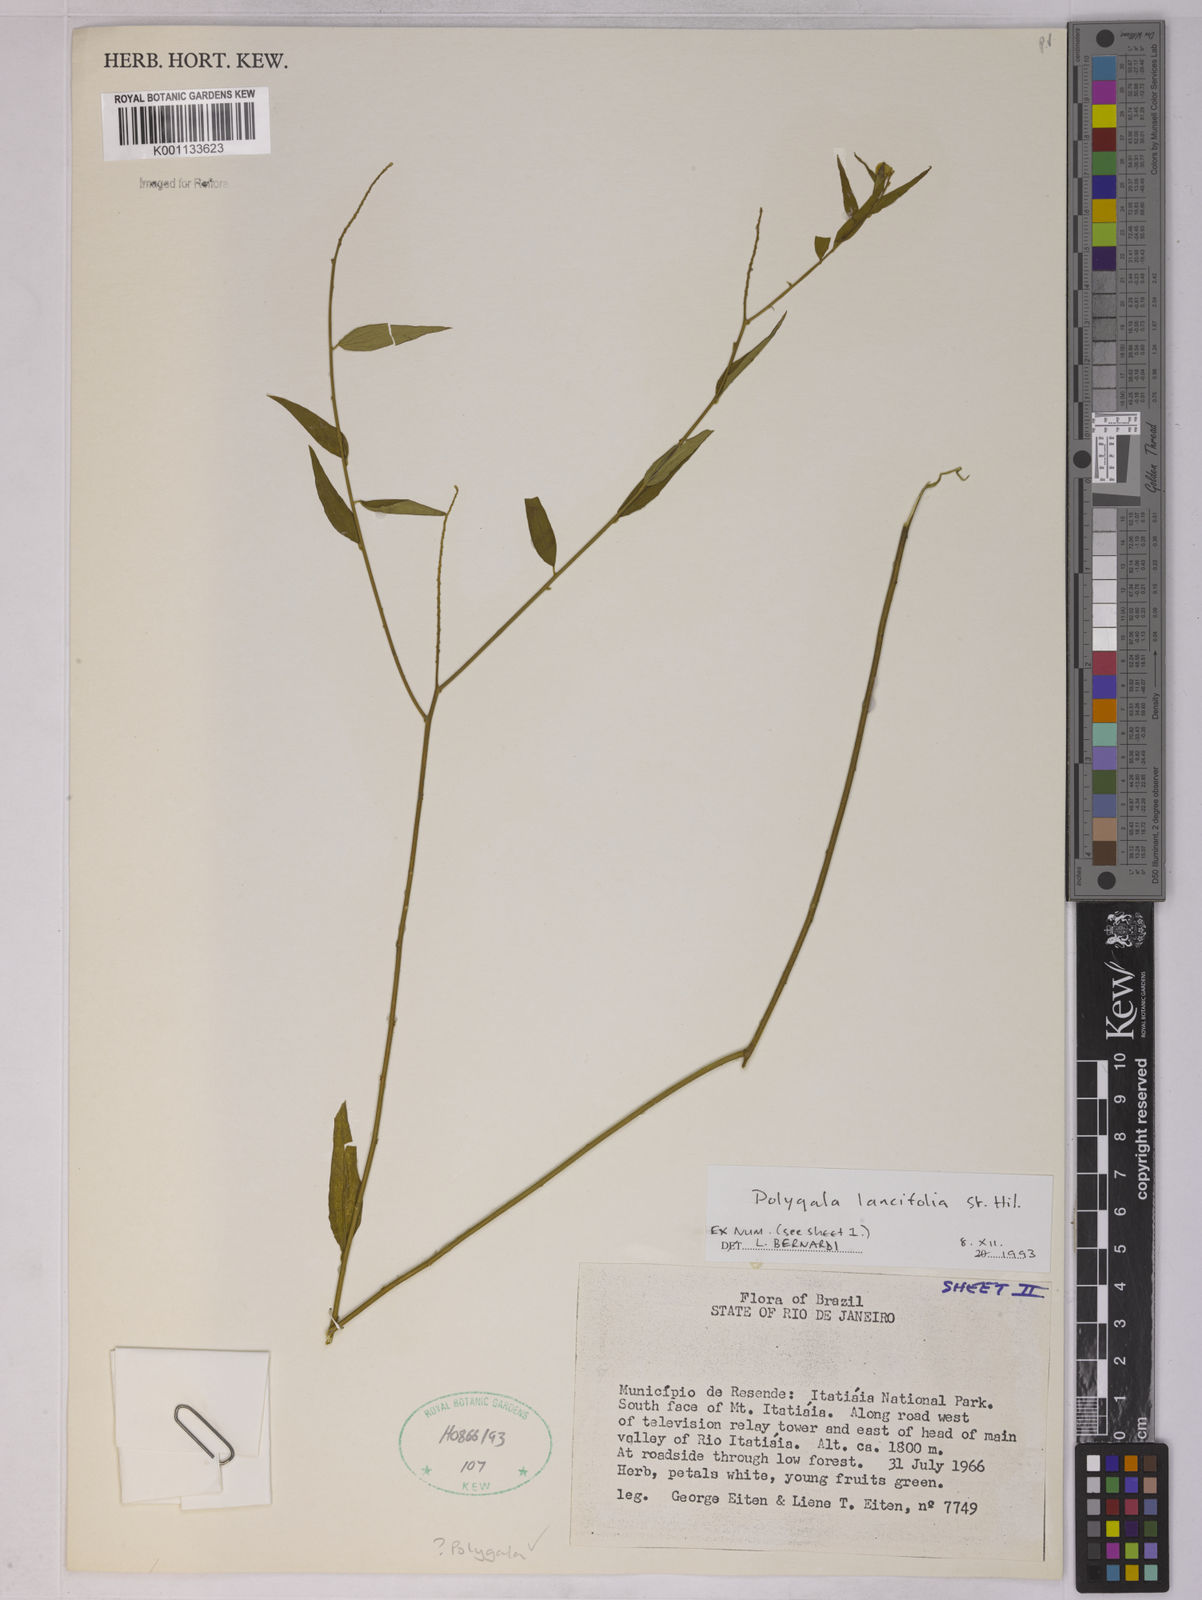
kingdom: Plantae
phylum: Tracheophyta
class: Magnoliopsida
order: Fabales
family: Polygalaceae
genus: Polygala
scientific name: Polygala lancifolia
